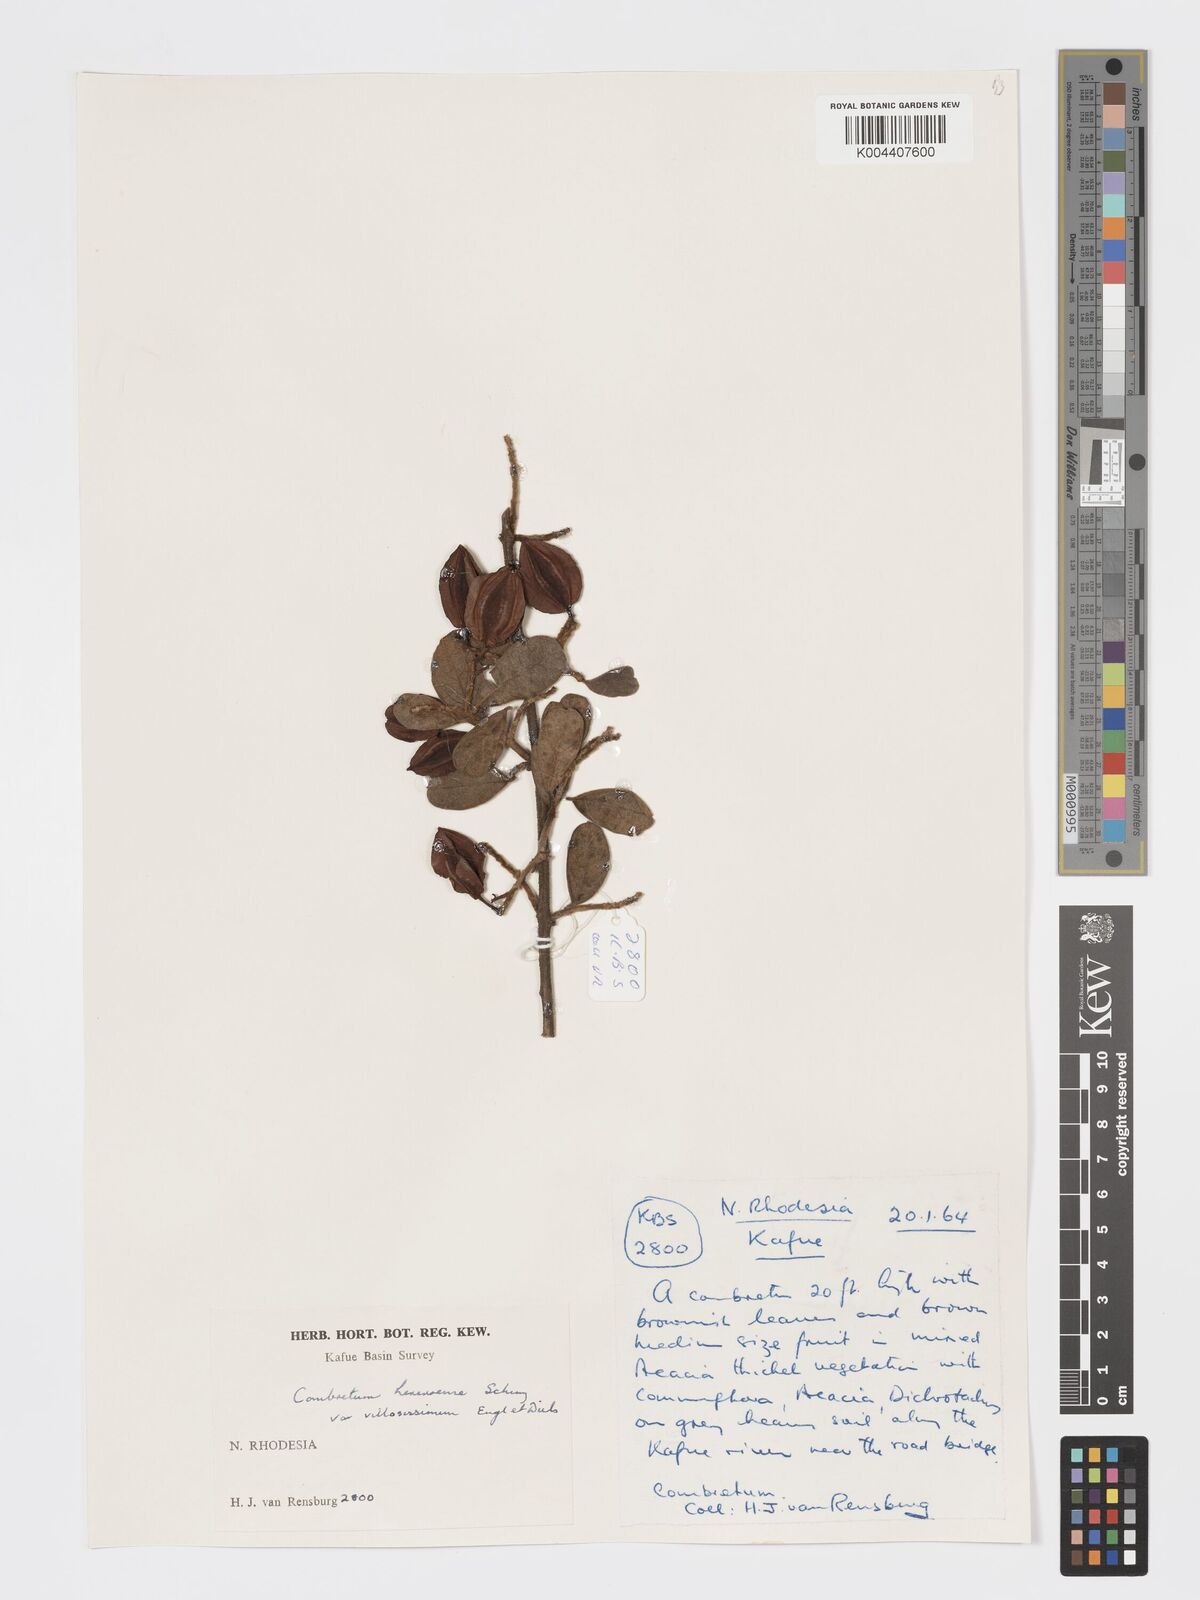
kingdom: Plantae
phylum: Tracheophyta
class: Magnoliopsida
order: Myrtales
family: Combretaceae
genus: Combretum
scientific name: Combretum hereroense
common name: Russet bushwillow
